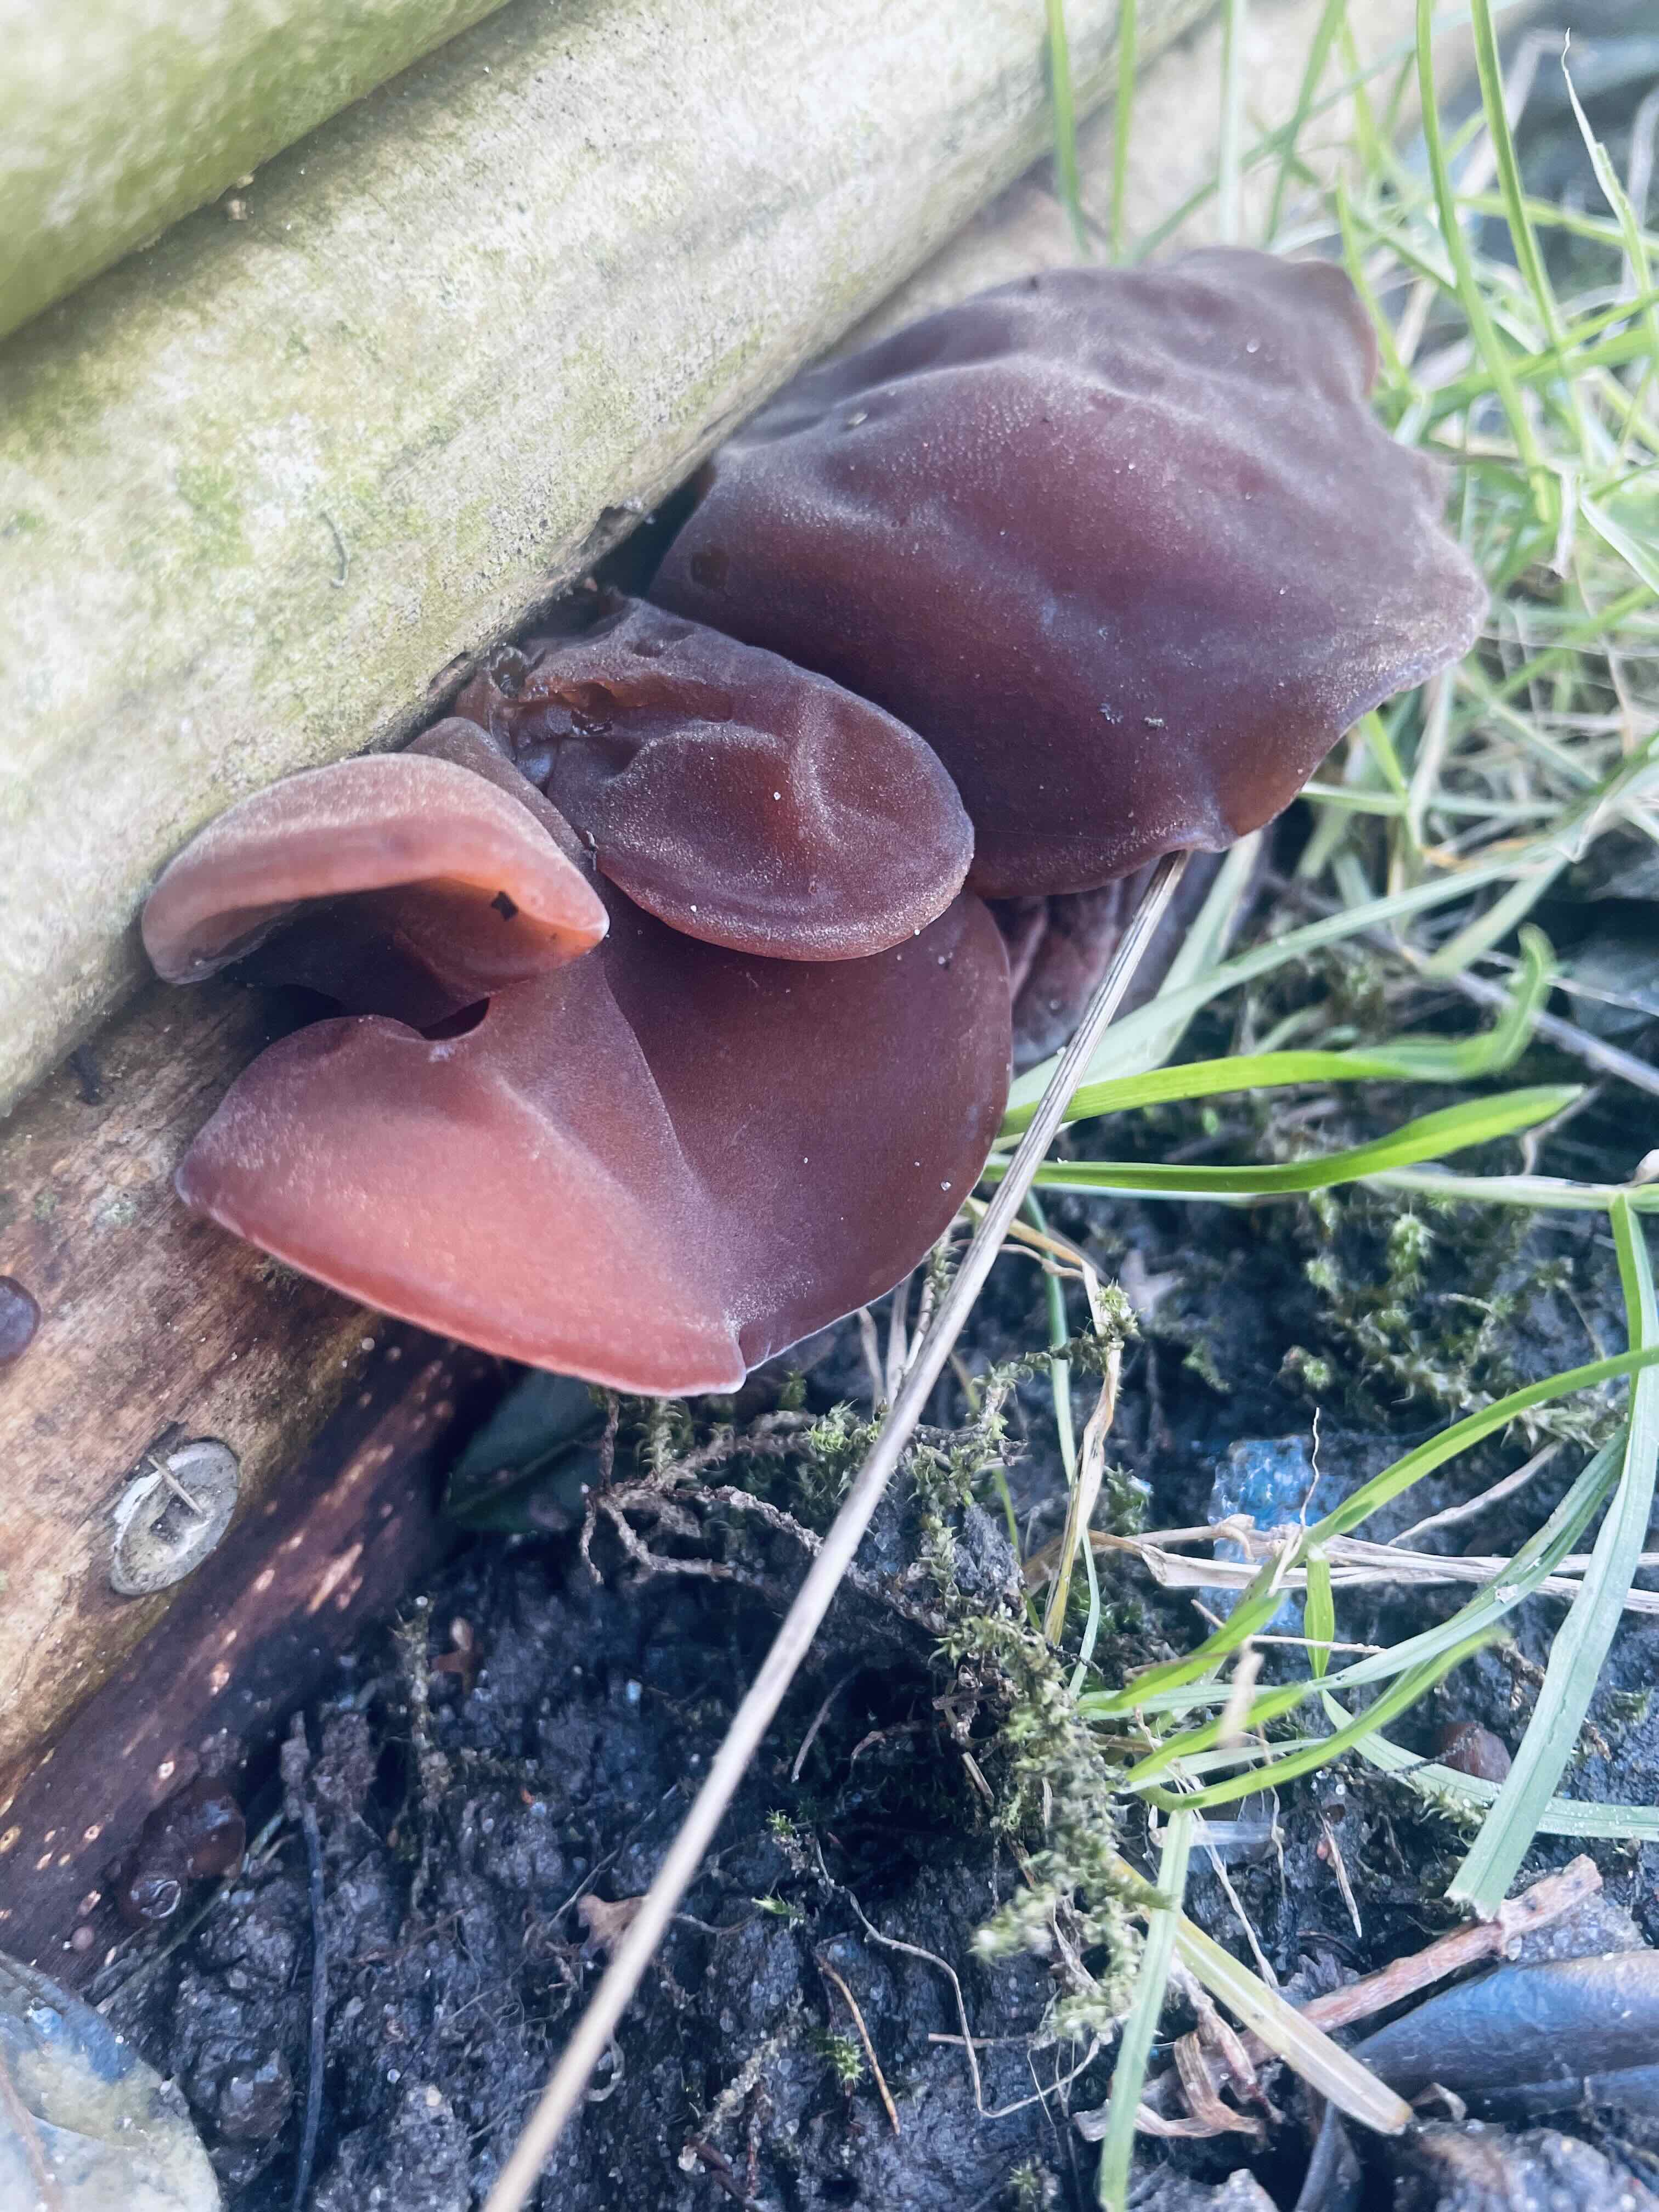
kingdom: Fungi
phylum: Basidiomycota
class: Agaricomycetes
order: Auriculariales
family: Auriculariaceae
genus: Auricularia
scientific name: Auricularia auricula-judae
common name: almindelig judasøre
